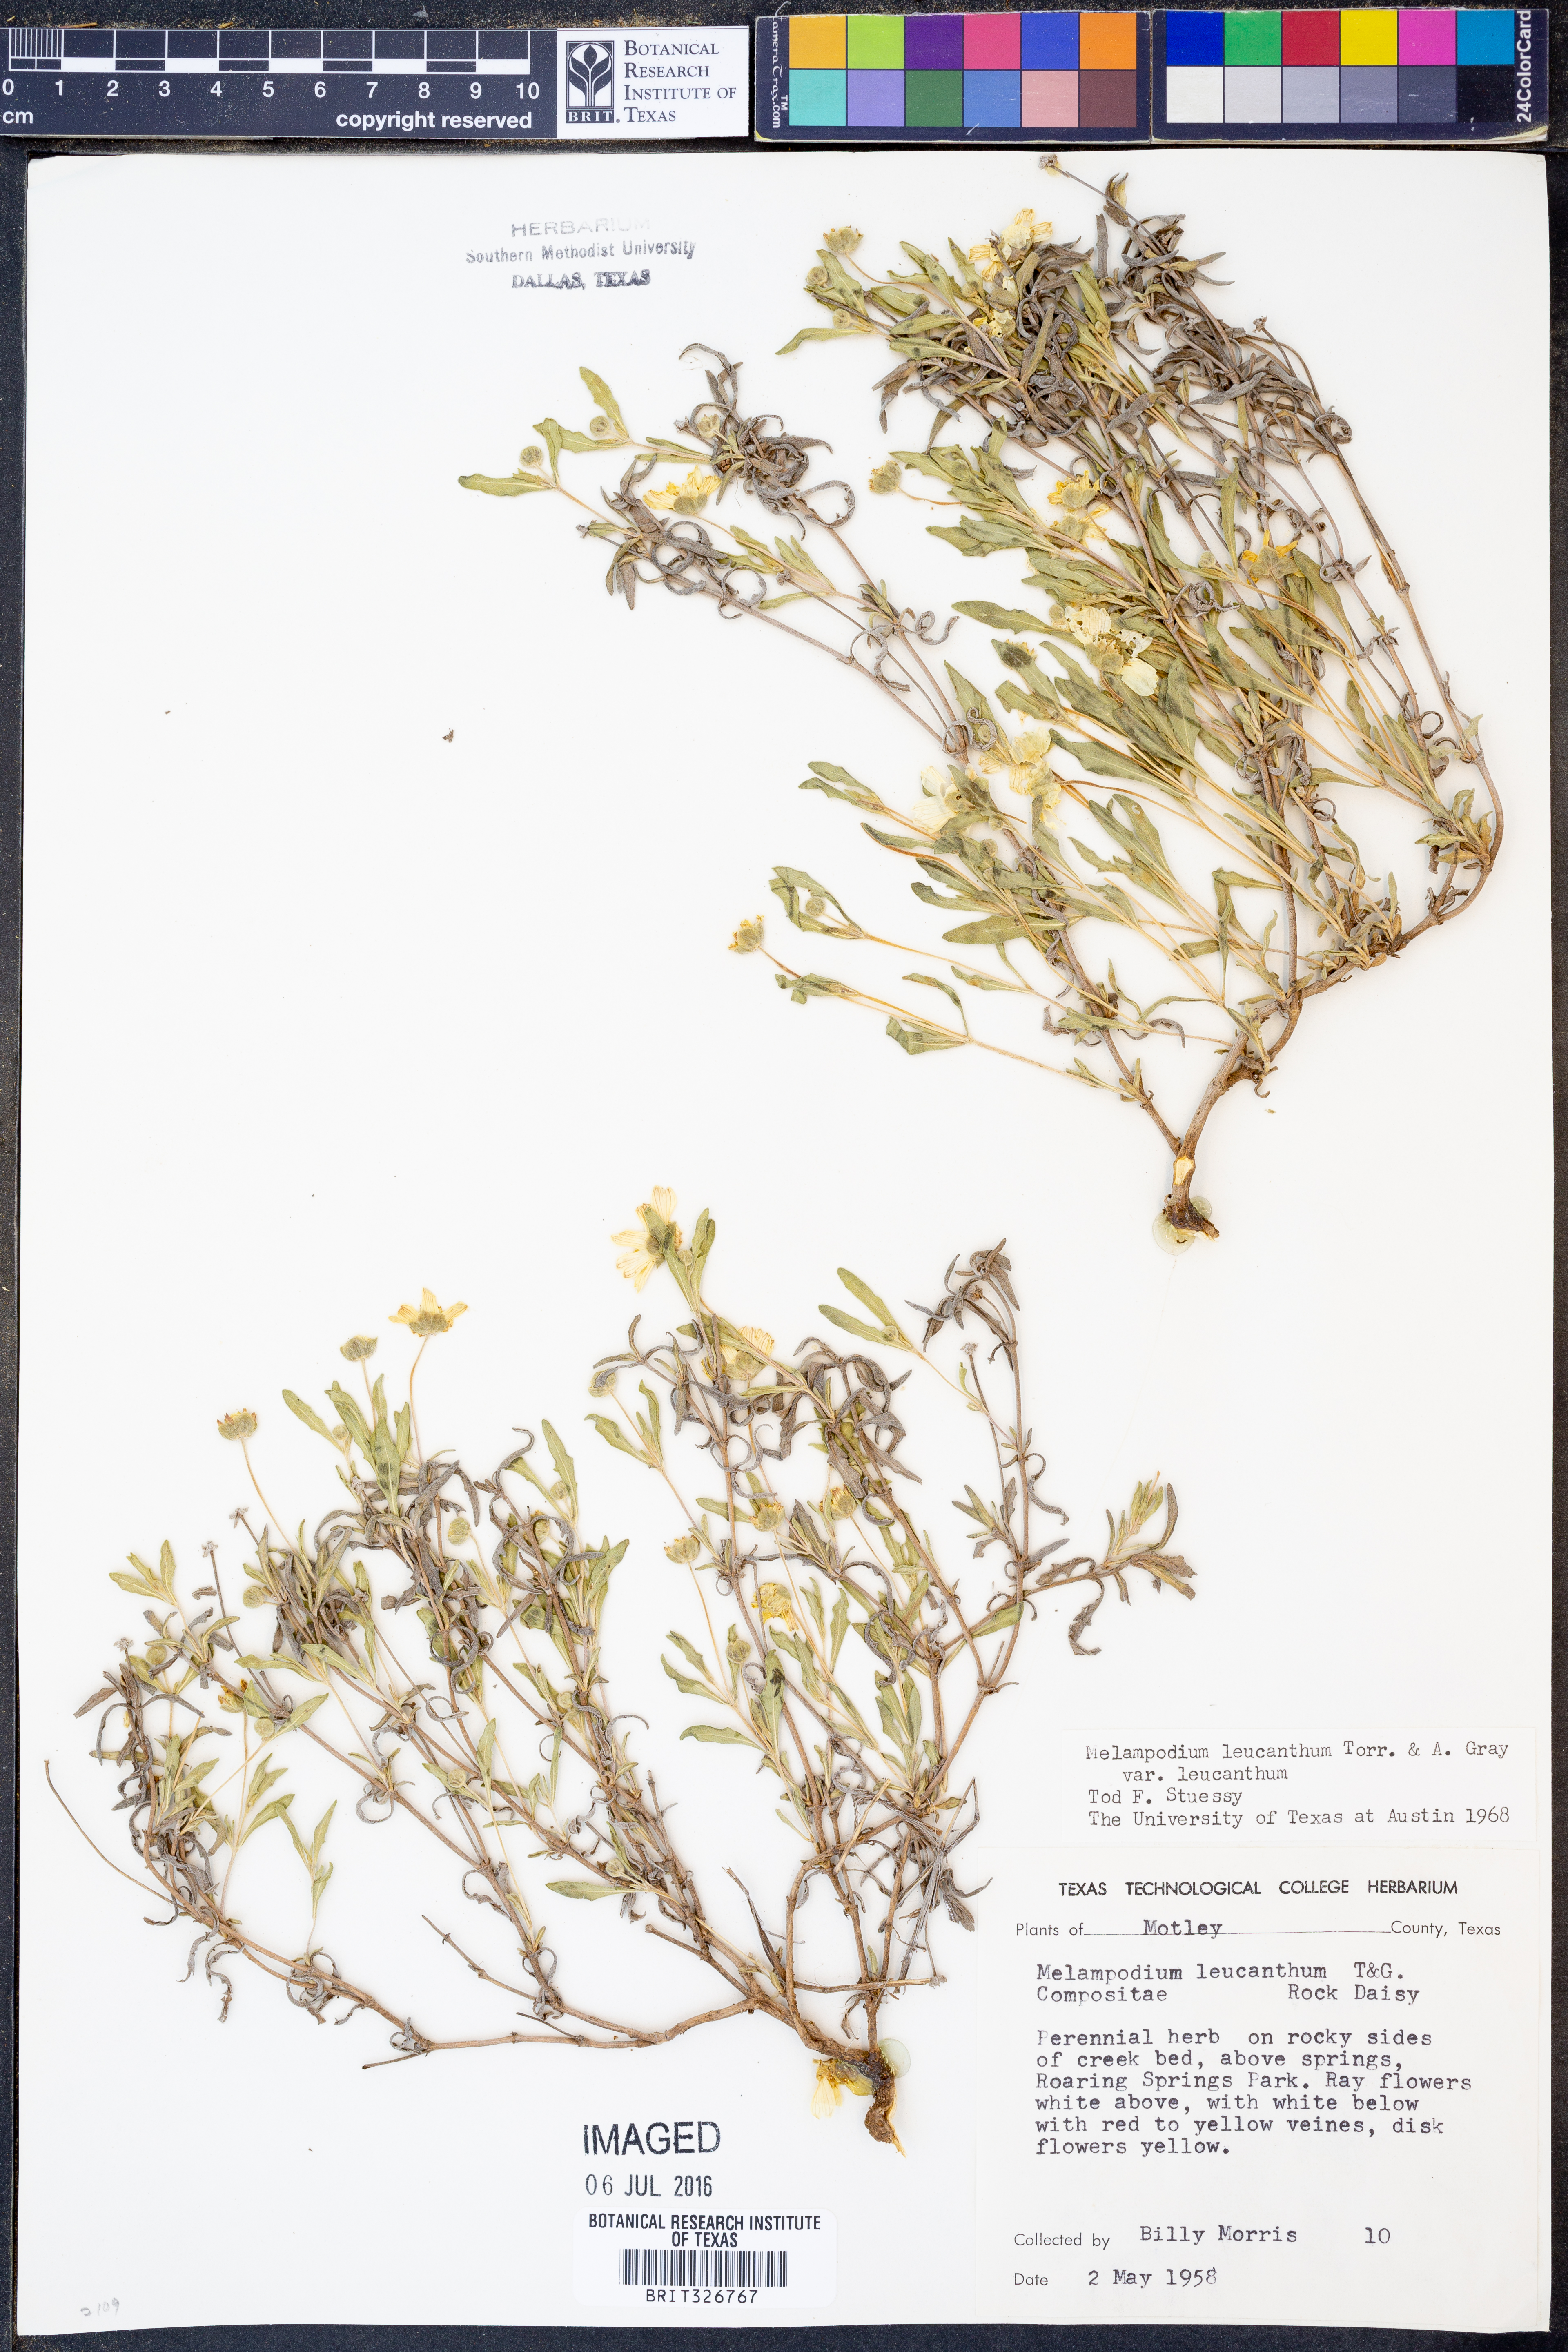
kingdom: Plantae
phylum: Tracheophyta
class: Magnoliopsida
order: Asterales
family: Asteraceae
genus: Melampodium
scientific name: Melampodium leucanthum
